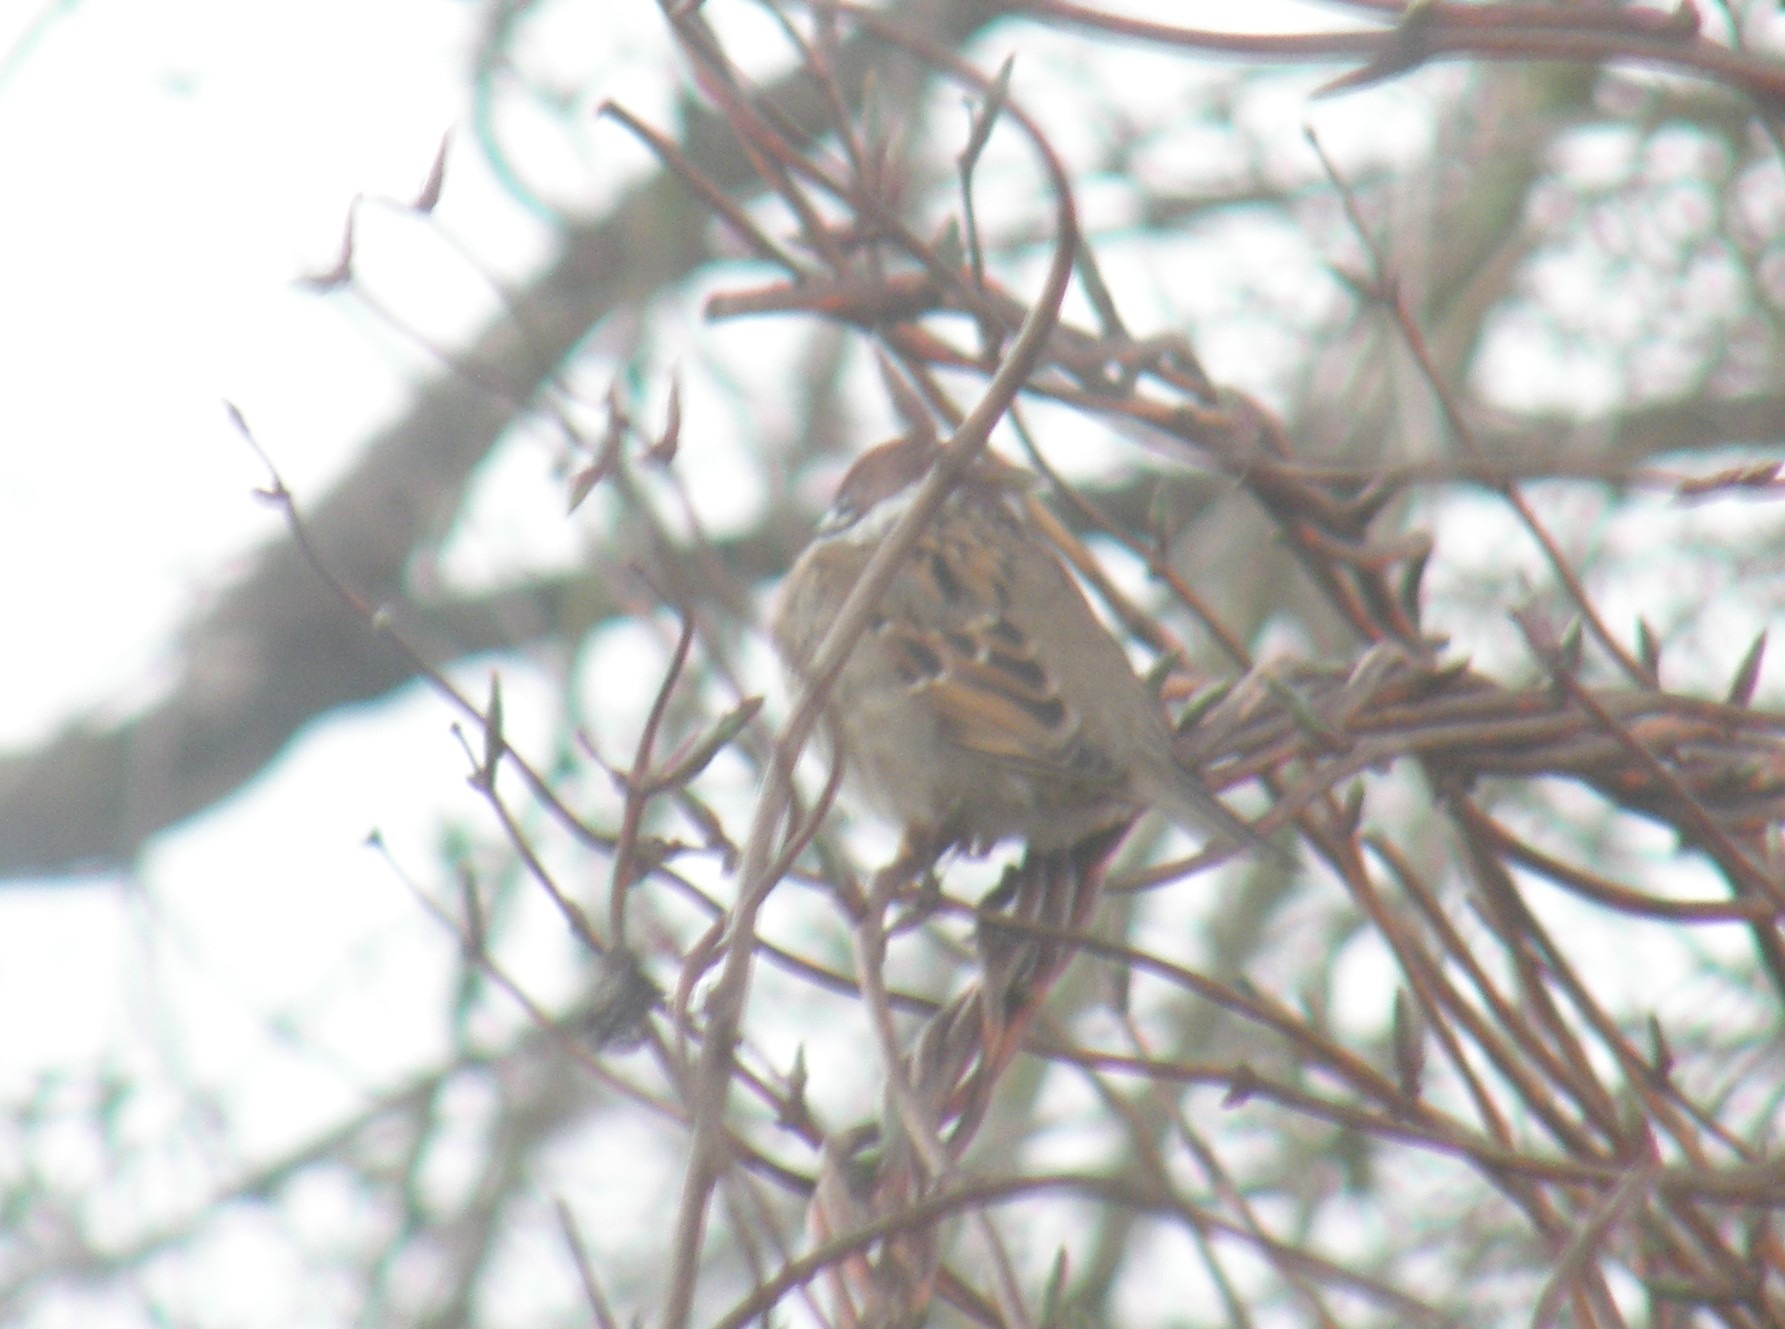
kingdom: Animalia
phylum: Chordata
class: Aves
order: Passeriformes
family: Passeridae
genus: Passer
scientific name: Passer montanus
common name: Skovspurv
